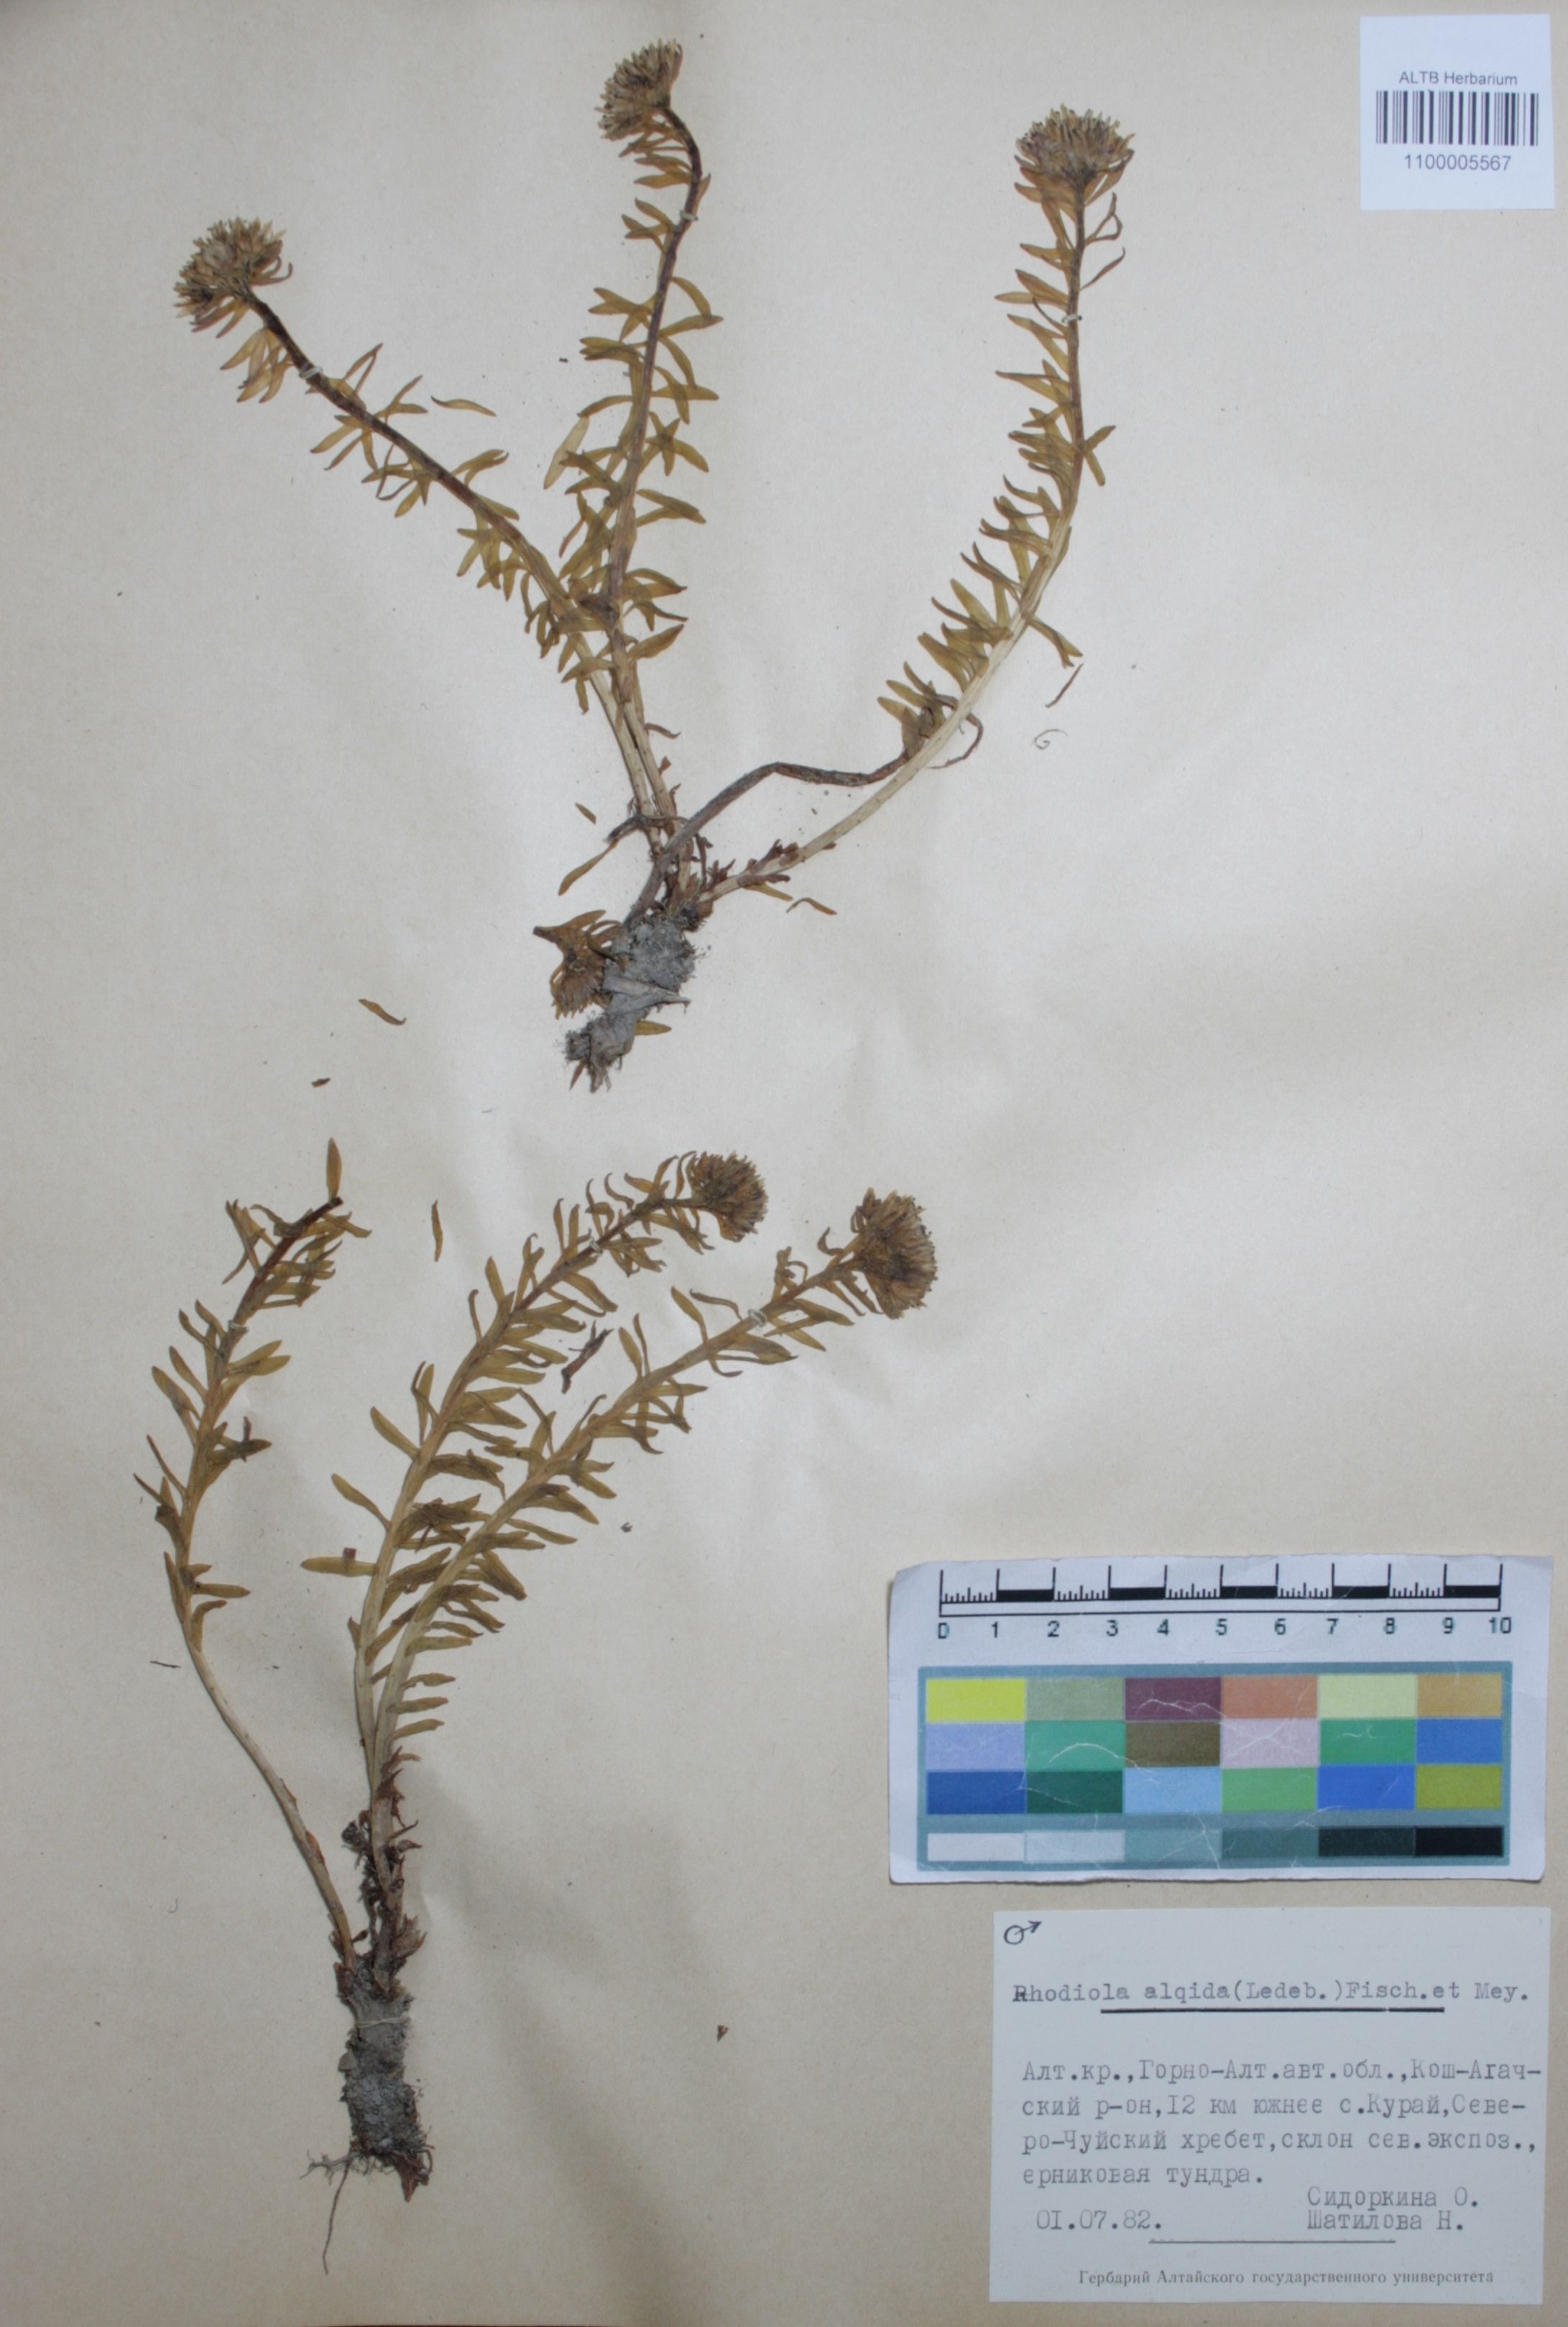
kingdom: Plantae
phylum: Tracheophyta
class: Magnoliopsida
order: Saxifragales
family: Crassulaceae
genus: Rhodiola
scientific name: Rhodiola algida
